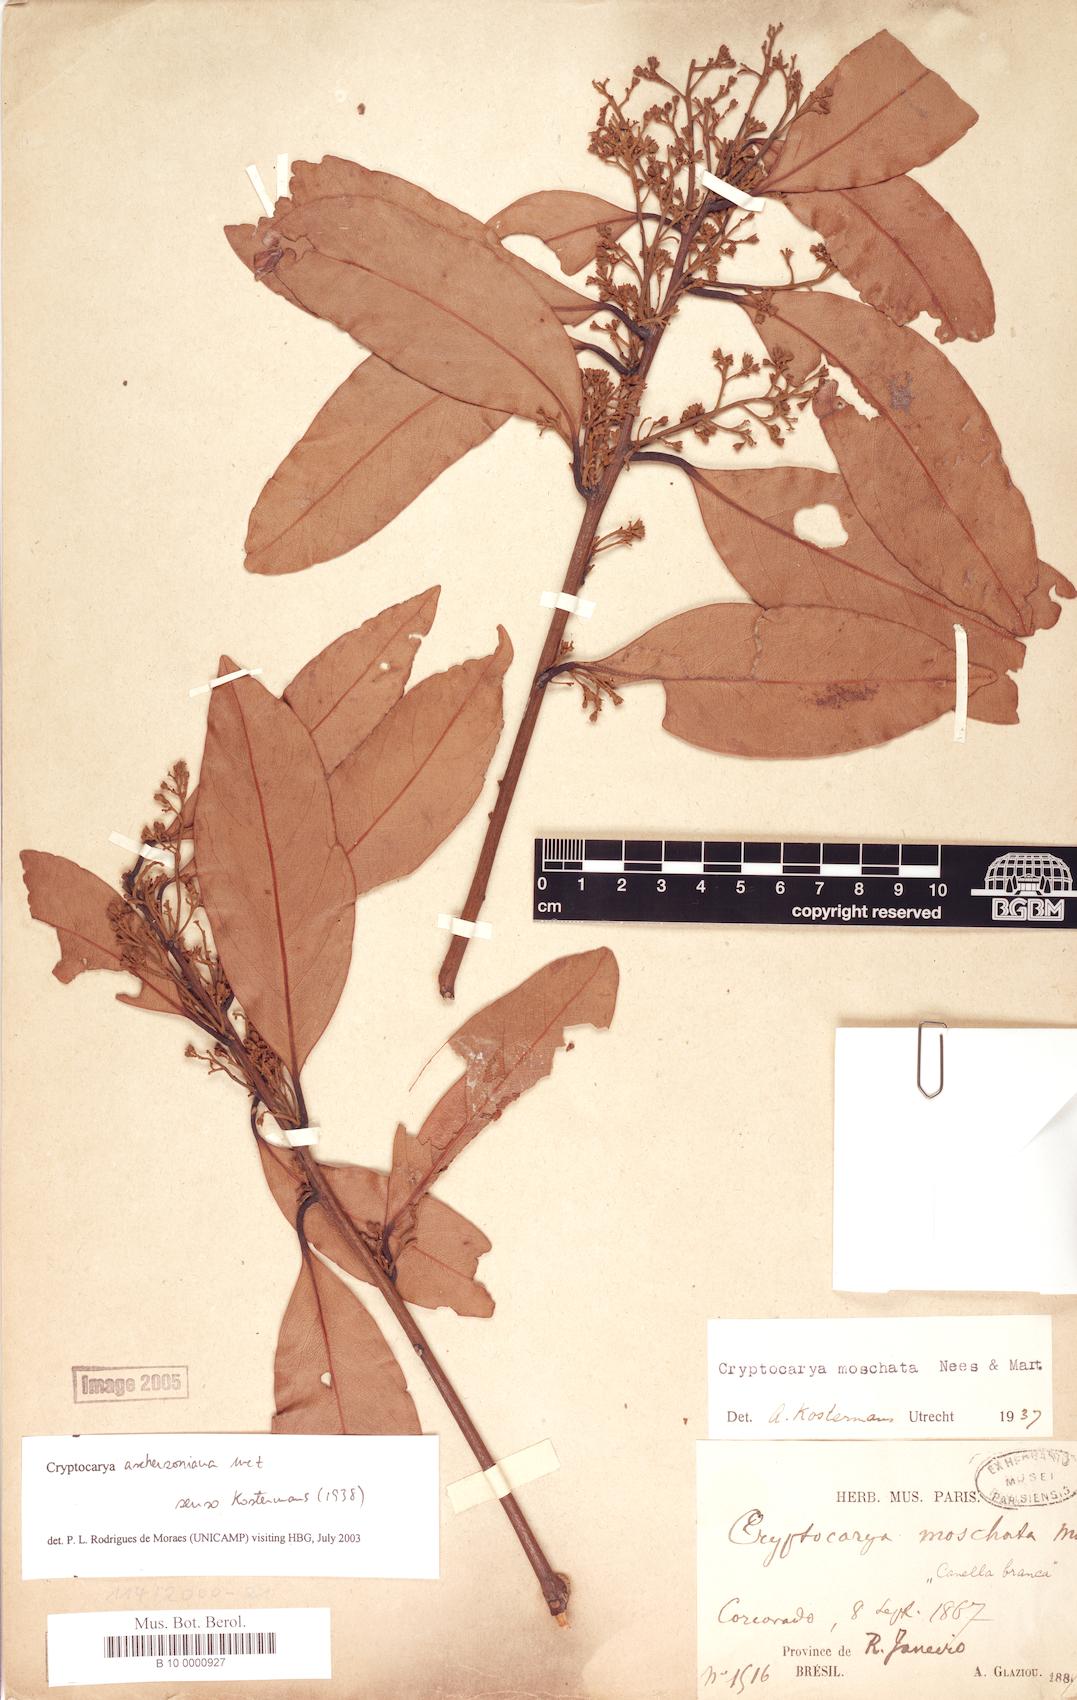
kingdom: Plantae
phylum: Tracheophyta
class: Magnoliopsida
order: Laurales
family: Lauraceae
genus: Cryptocarya
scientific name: Cryptocarya aschersoniana
